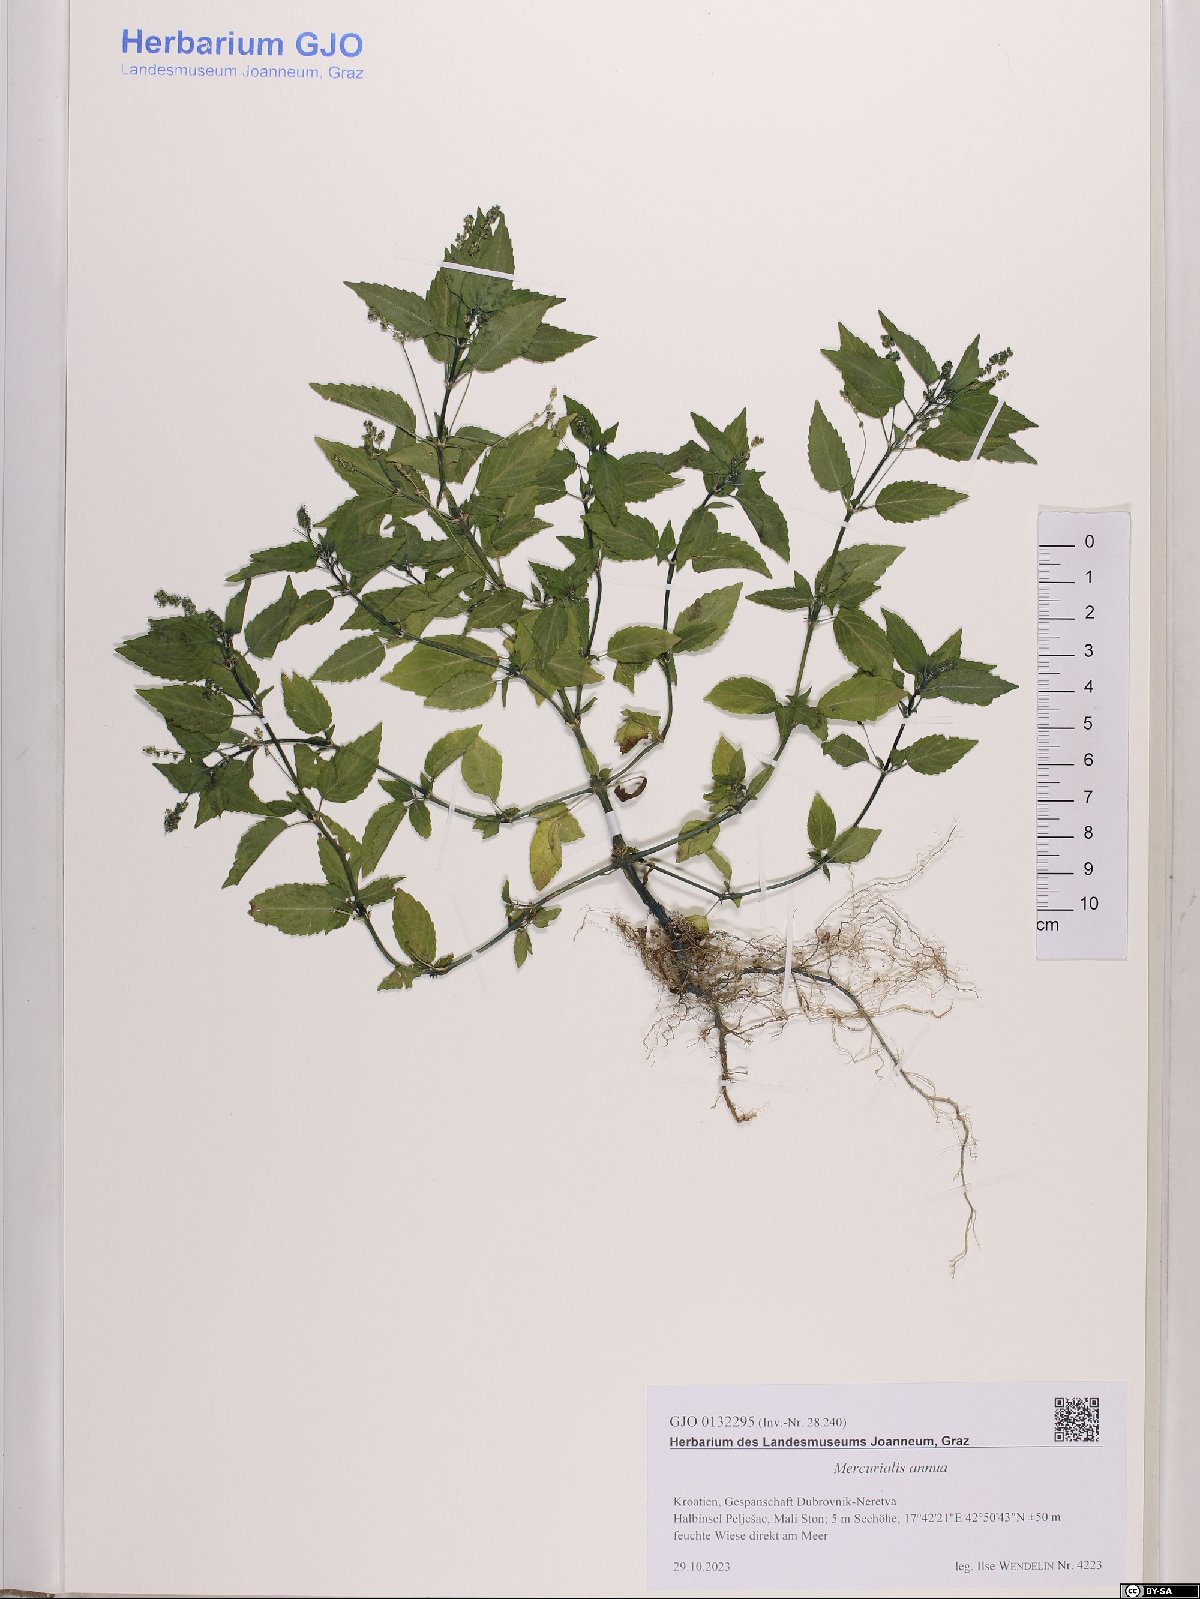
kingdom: Plantae
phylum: Tracheophyta
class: Magnoliopsida
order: Malpighiales
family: Euphorbiaceae
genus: Mercurialis
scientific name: Mercurialis annua
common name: Annual mercury
